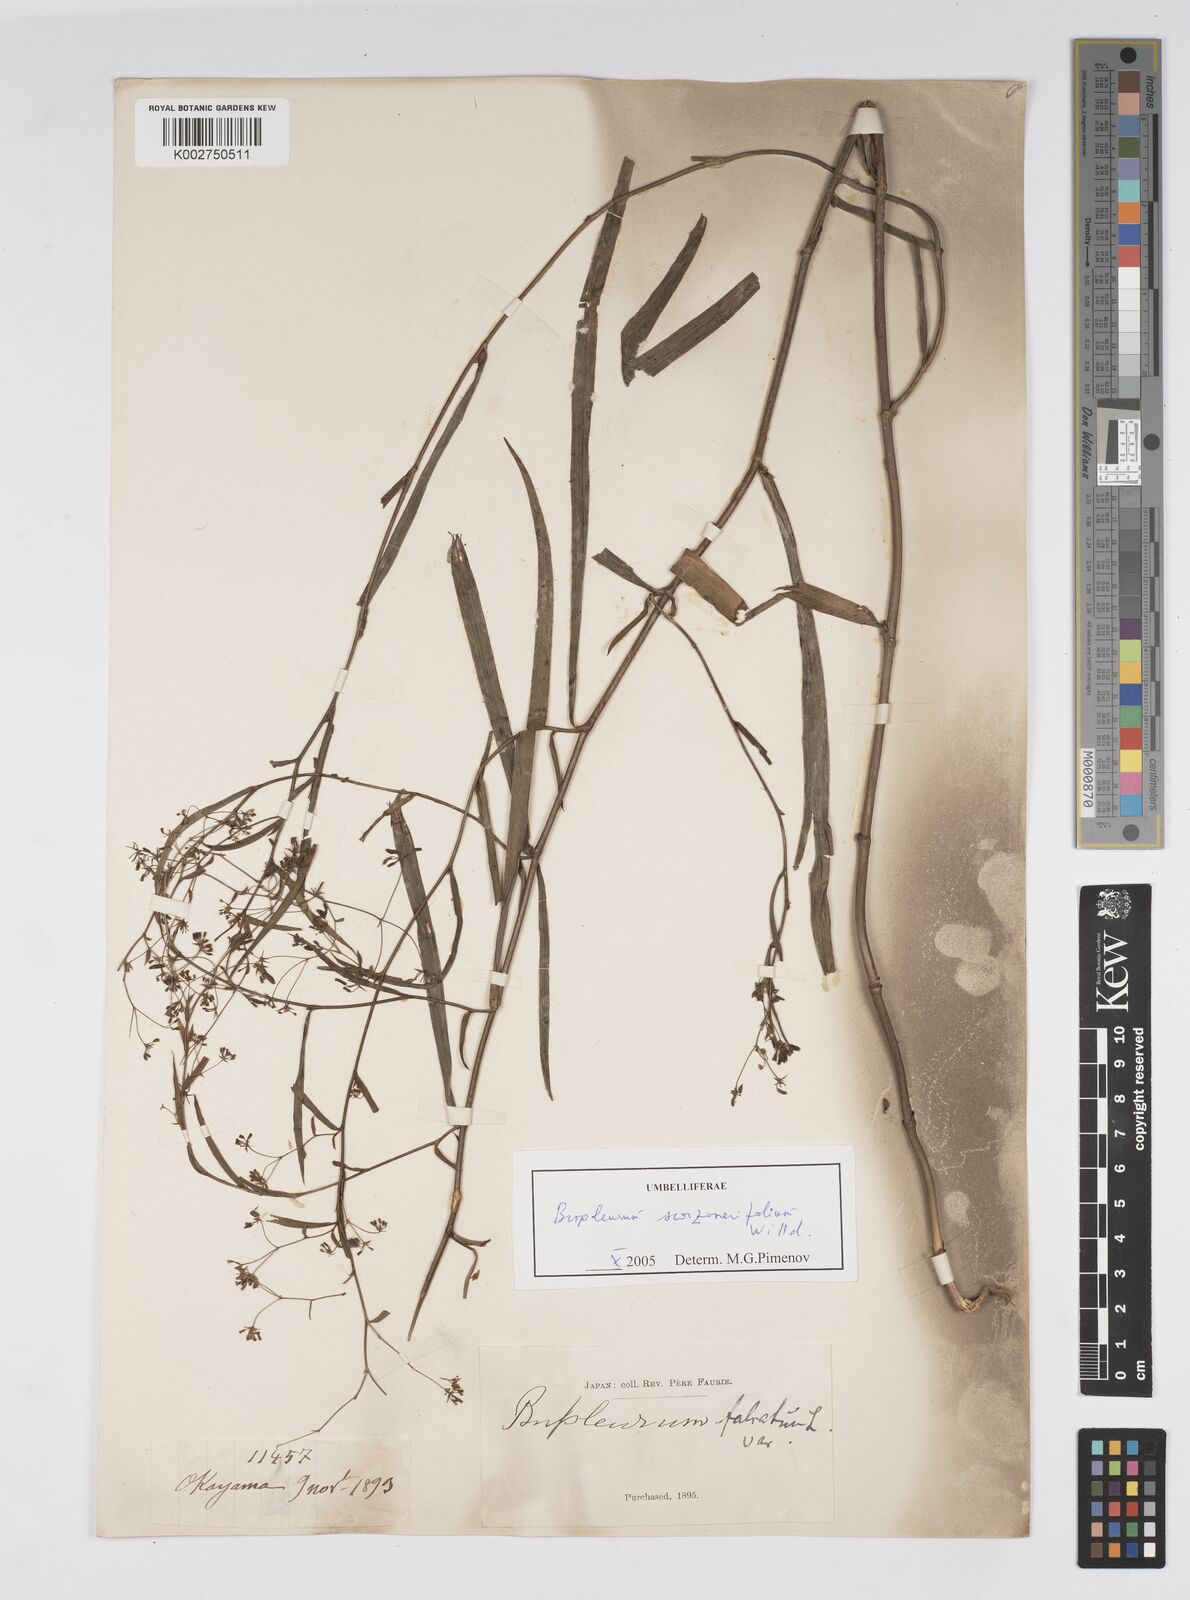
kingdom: Plantae
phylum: Tracheophyta
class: Magnoliopsida
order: Apiales
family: Apiaceae
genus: Bupleurum
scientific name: Bupleurum krylovianum
